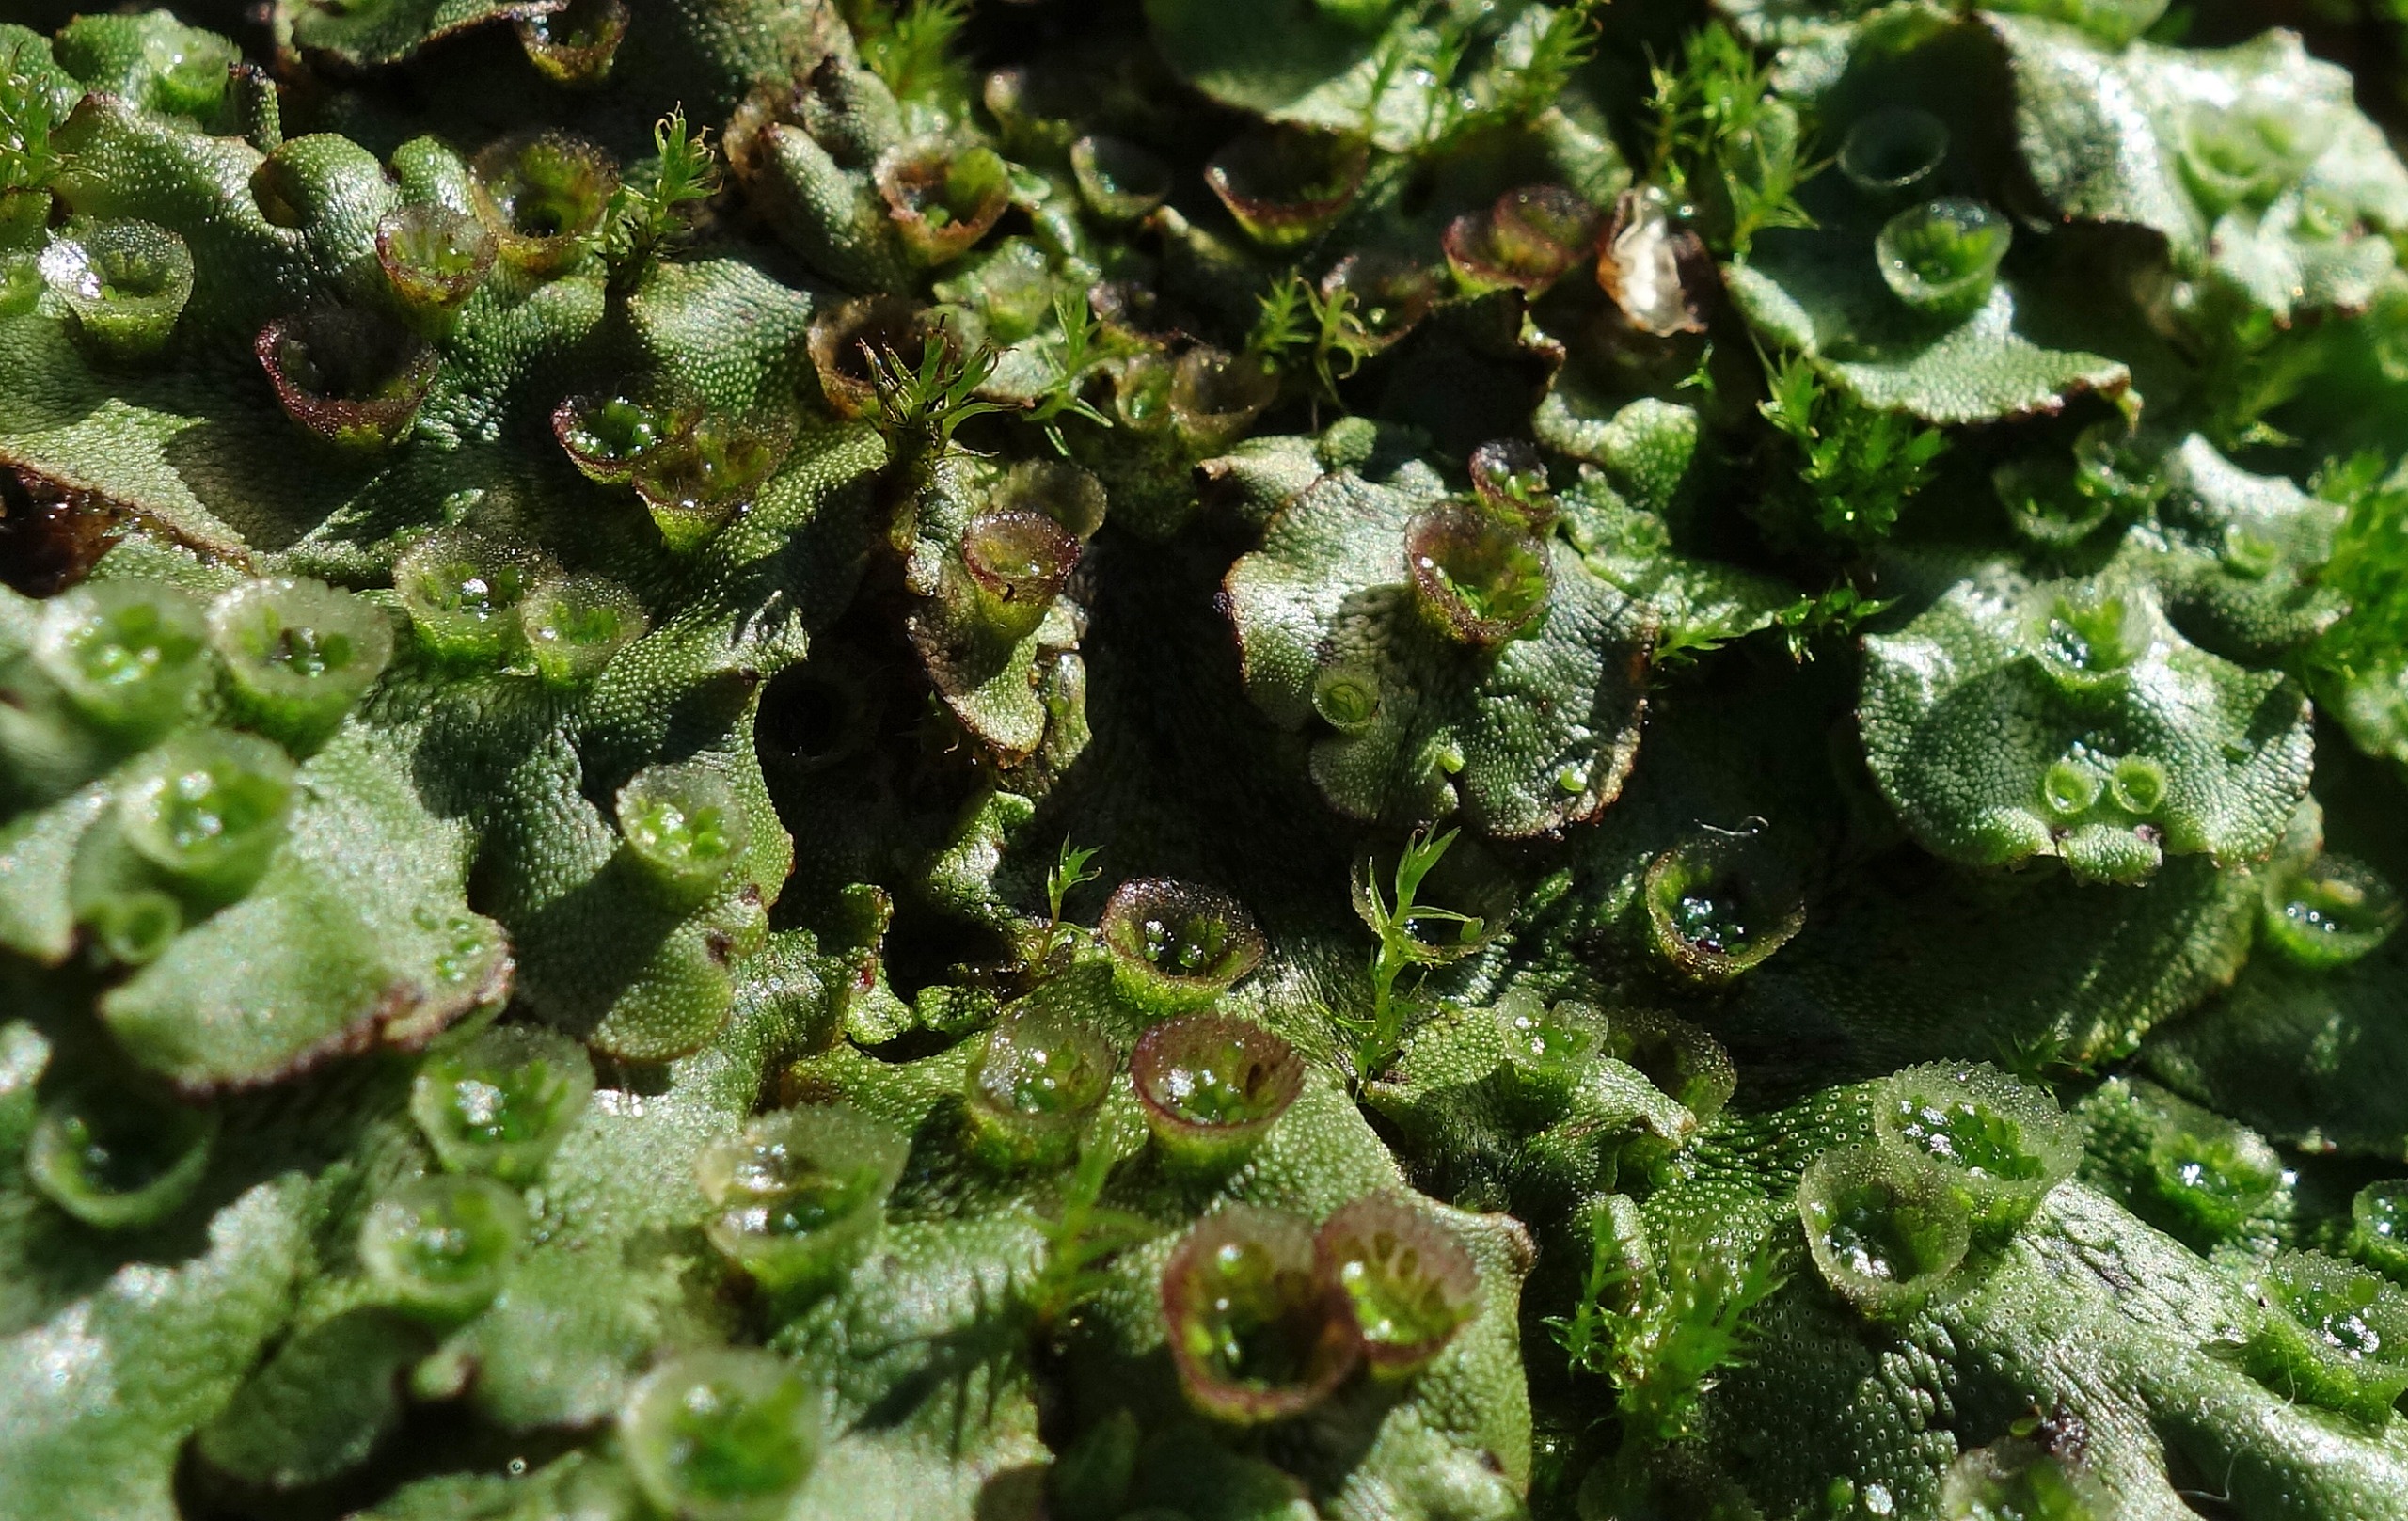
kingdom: Plantae
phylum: Marchantiophyta
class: Marchantiopsida
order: Marchantiales
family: Marchantiaceae
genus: Marchantia
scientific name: Marchantia polymorpha
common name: Almindelig lungemos
